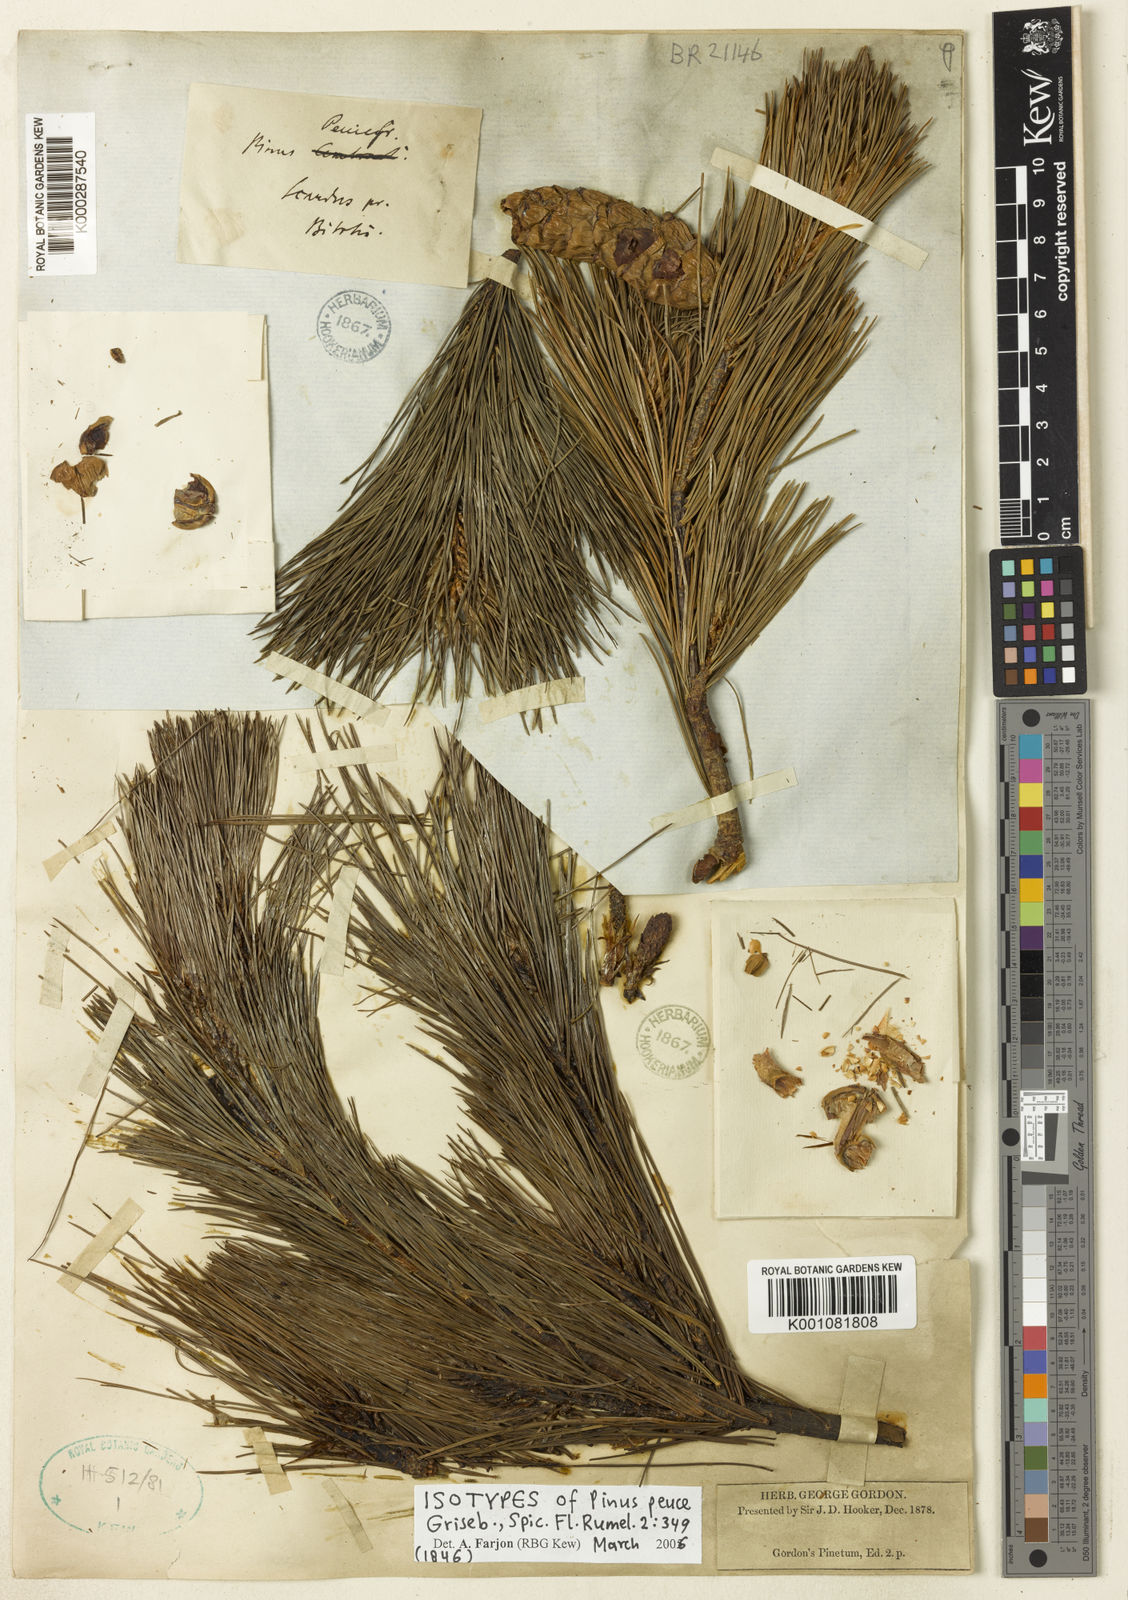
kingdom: Plantae
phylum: Tracheophyta
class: Pinopsida
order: Pinales
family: Pinaceae
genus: Pinus
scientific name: Pinus peuce
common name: Macedonian pine
